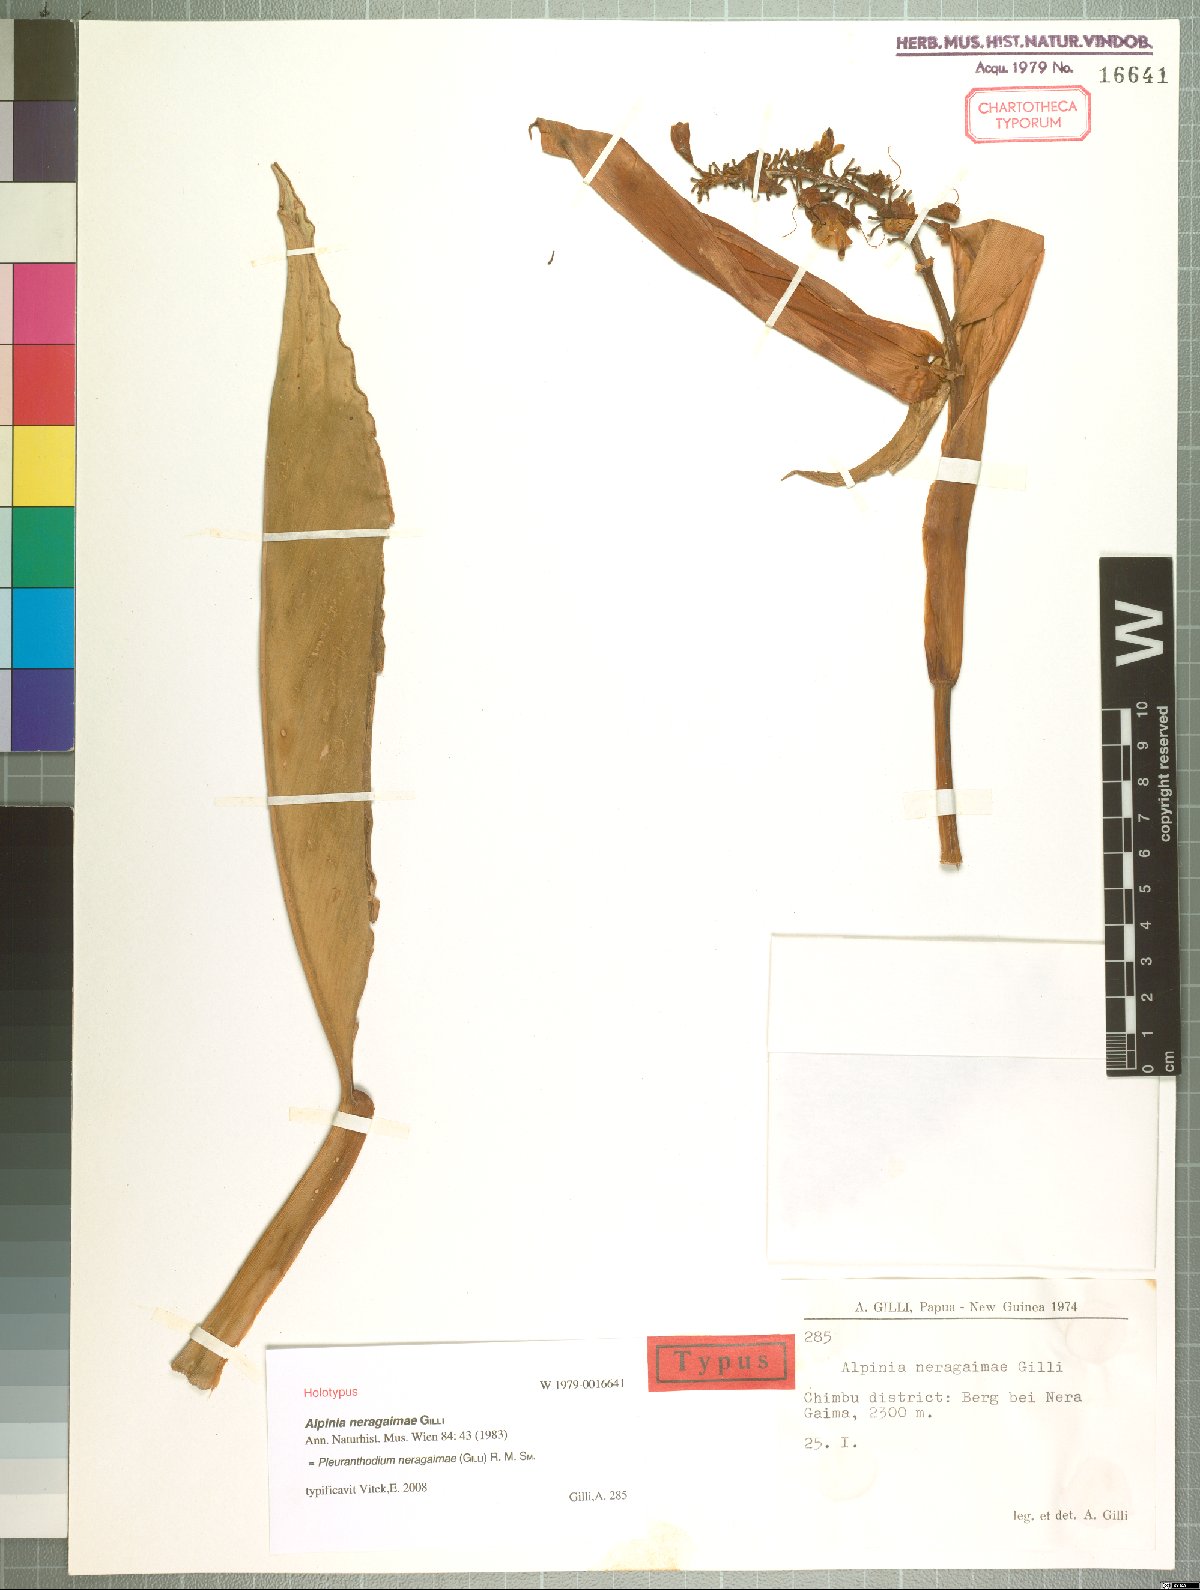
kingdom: Plantae
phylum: Tracheophyta
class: Liliopsida
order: Zingiberales
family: Zingiberaceae
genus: Pleuranthodium
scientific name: Pleuranthodium neragaimae
